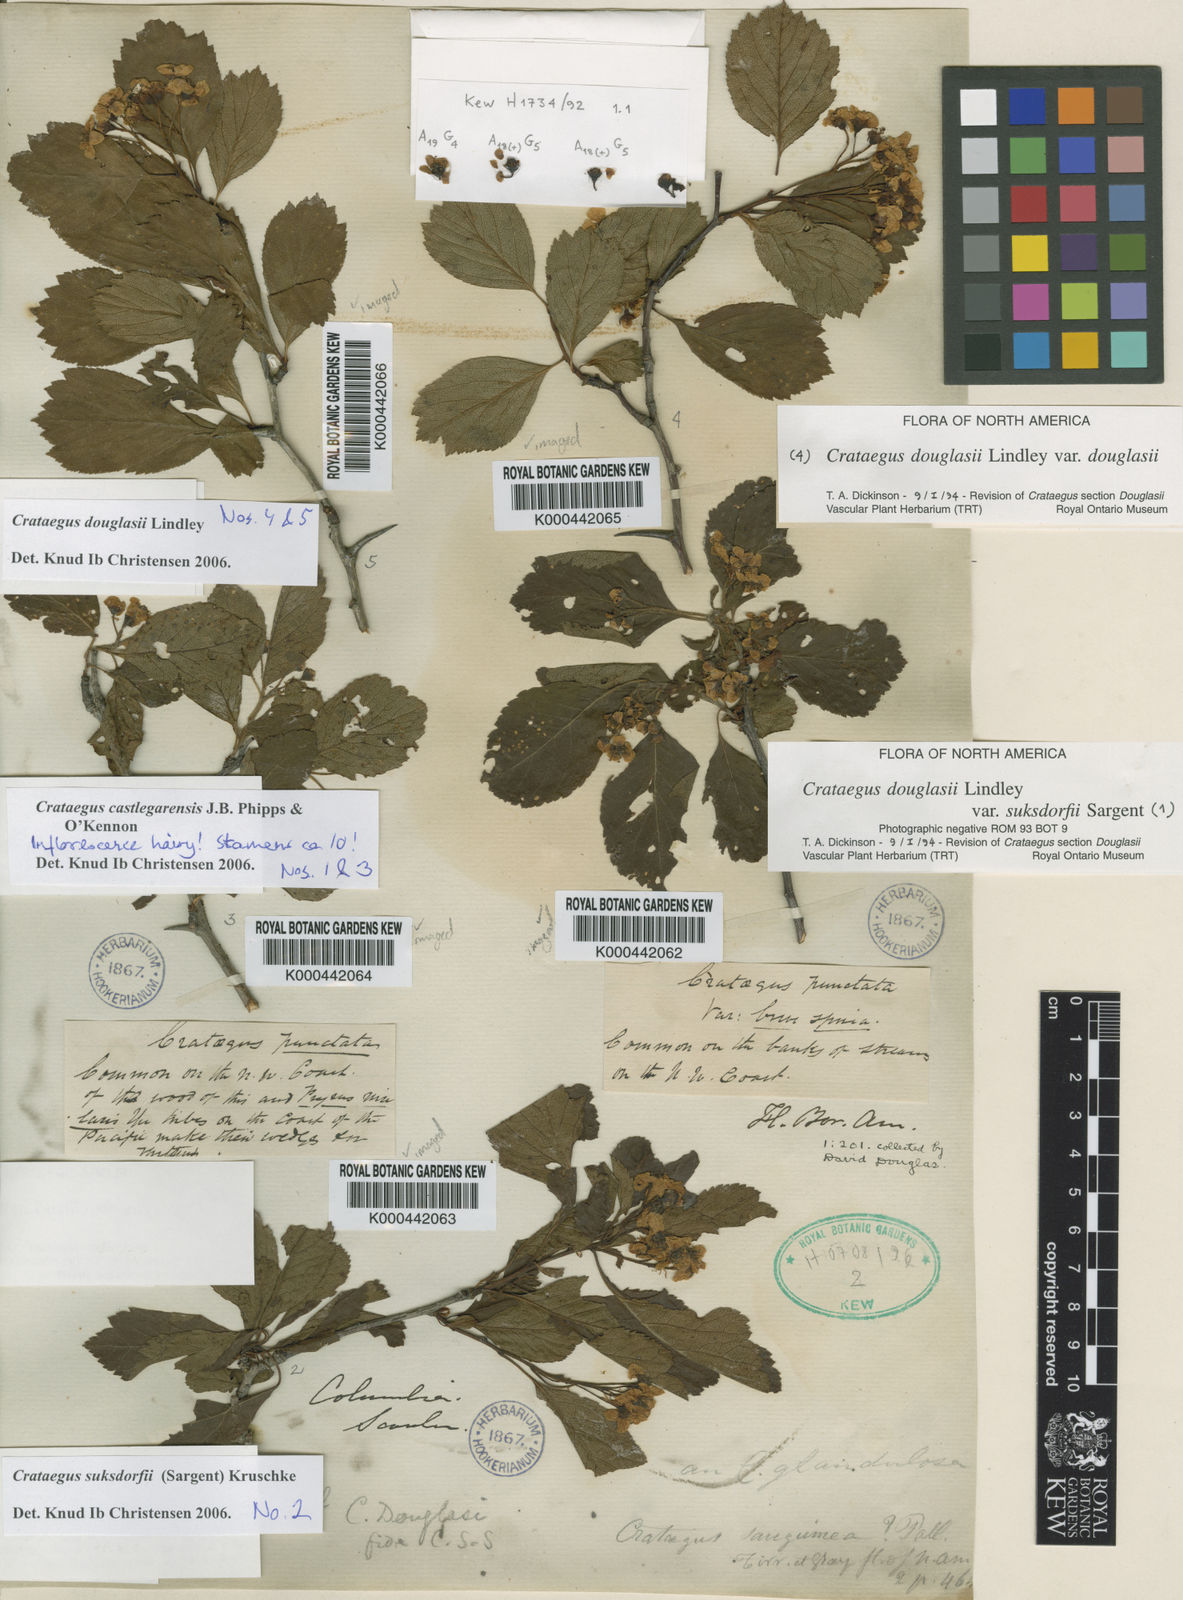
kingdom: Plantae
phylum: Tracheophyta
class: Magnoliopsida
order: Rosales
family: Rosaceae
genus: Crataegus
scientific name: Crataegus douglasii
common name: Black hawthorn
